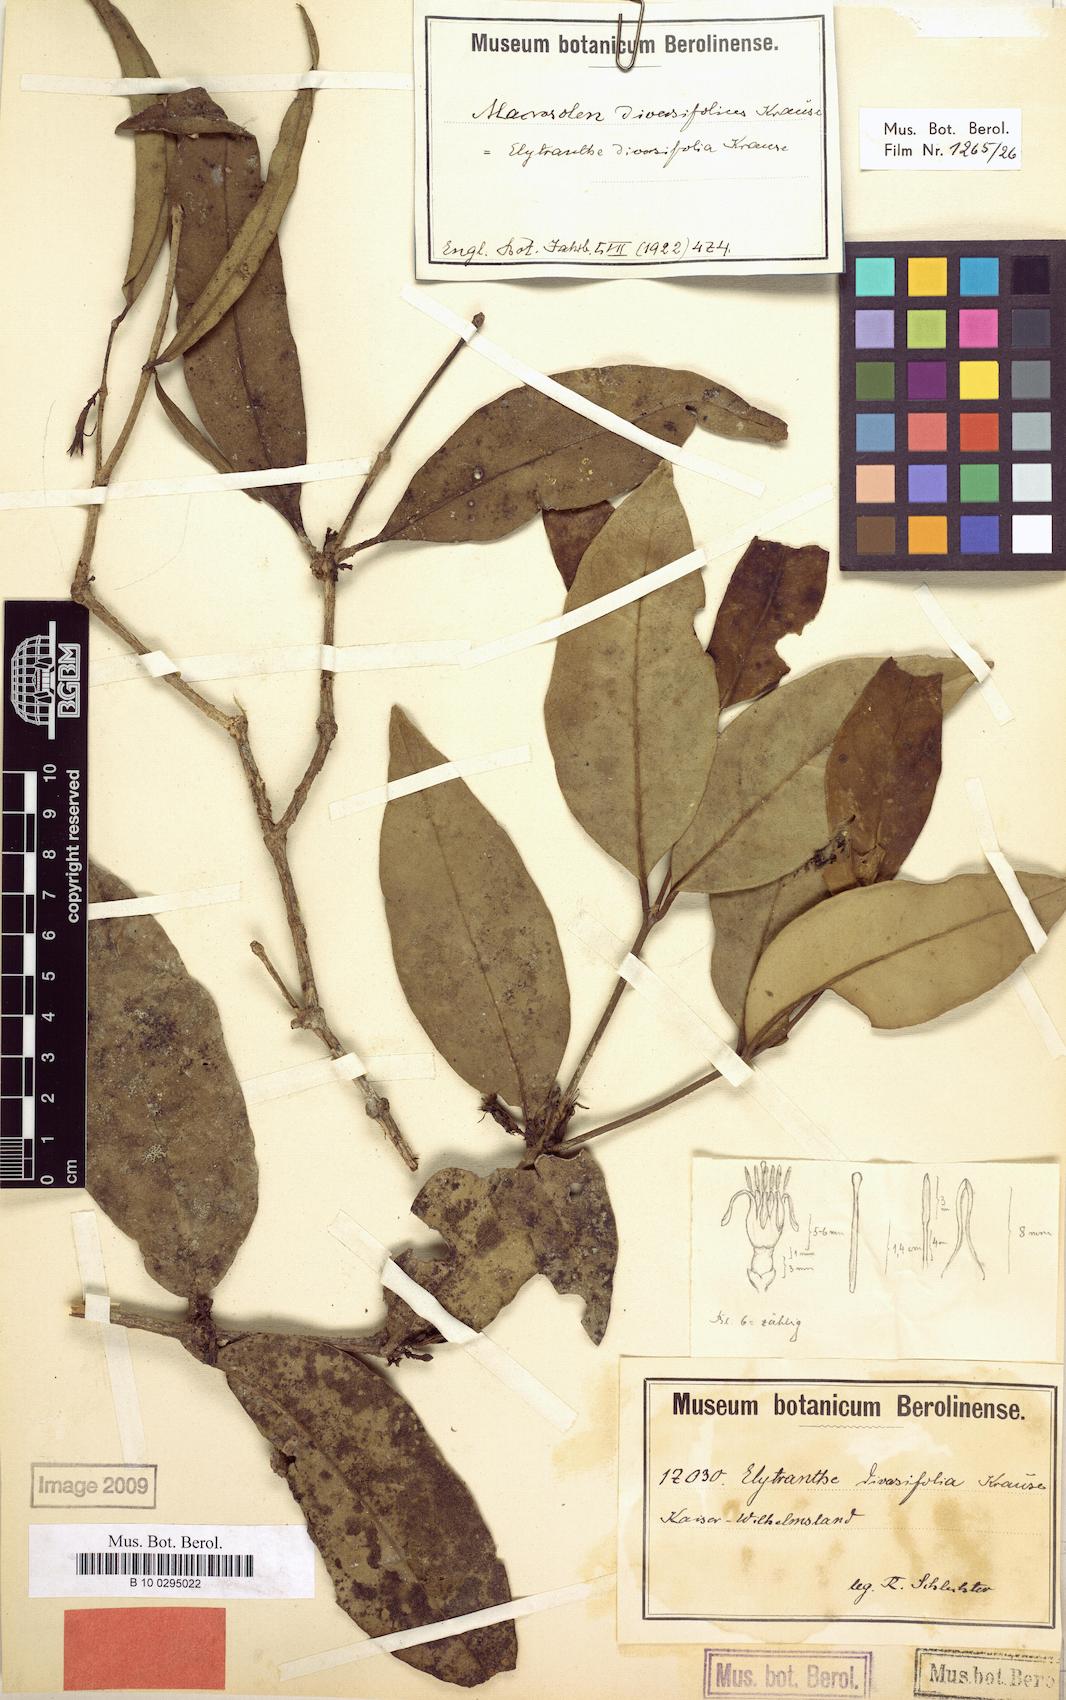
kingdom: Plantae
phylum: Tracheophyta
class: Magnoliopsida
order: Santalales
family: Loranthaceae
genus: Macrosolen
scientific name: Macrosolen cochinchinensis
